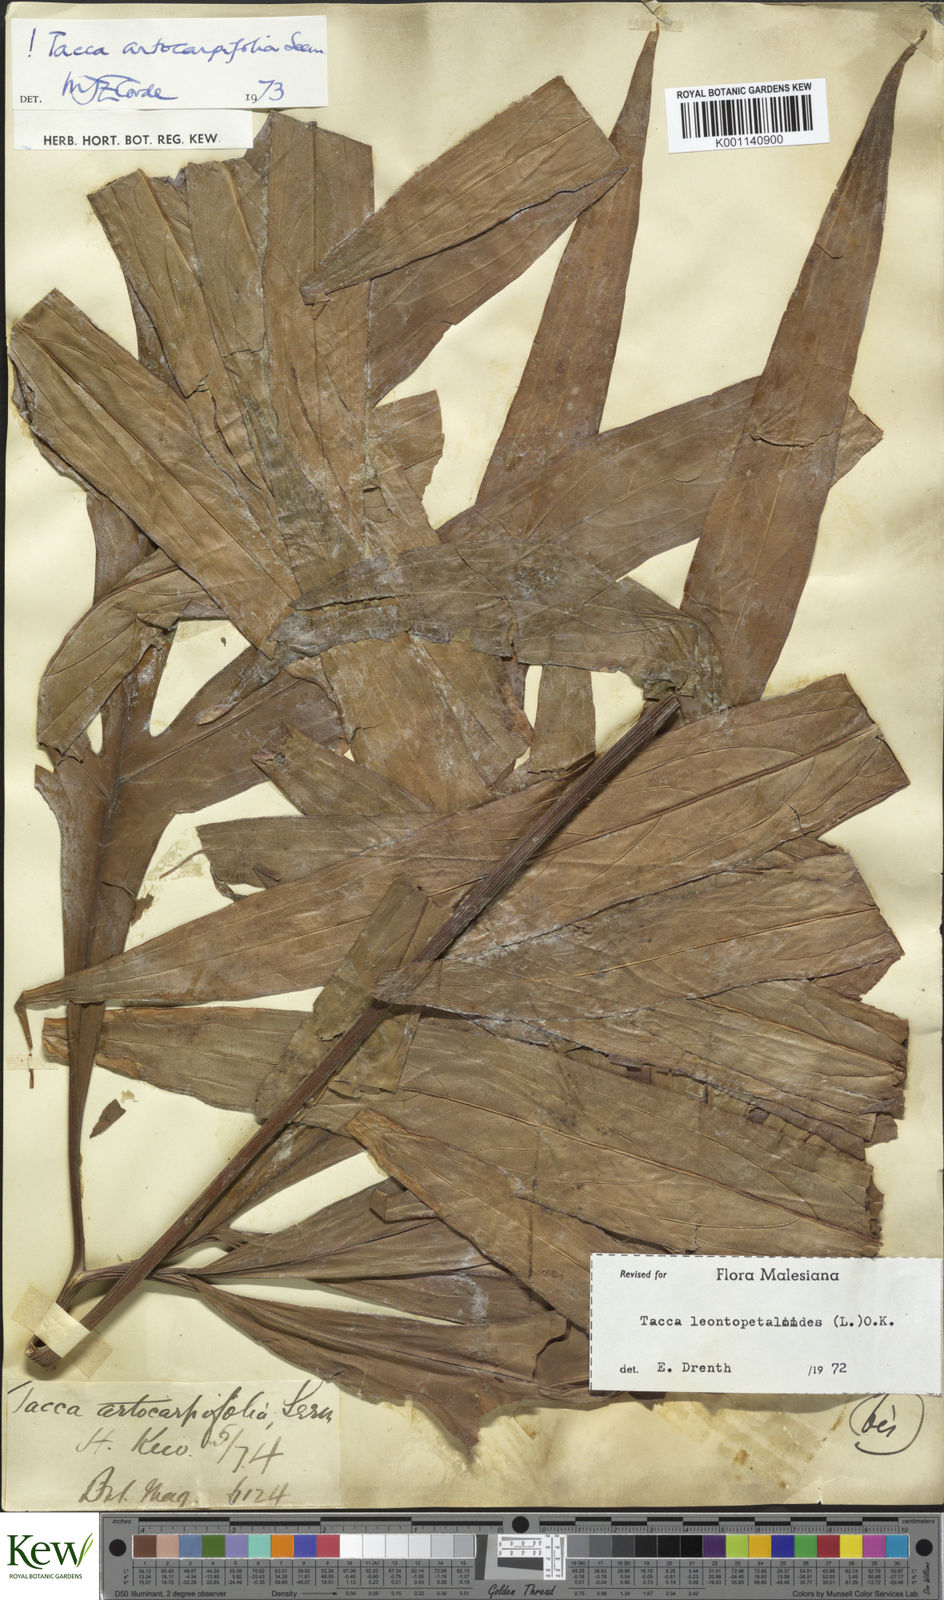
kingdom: Plantae
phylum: Tracheophyta
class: Liliopsida
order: Dioscoreales
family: Dioscoreaceae
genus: Tacca
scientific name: Tacca leontopetaloides
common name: Arrowroot
